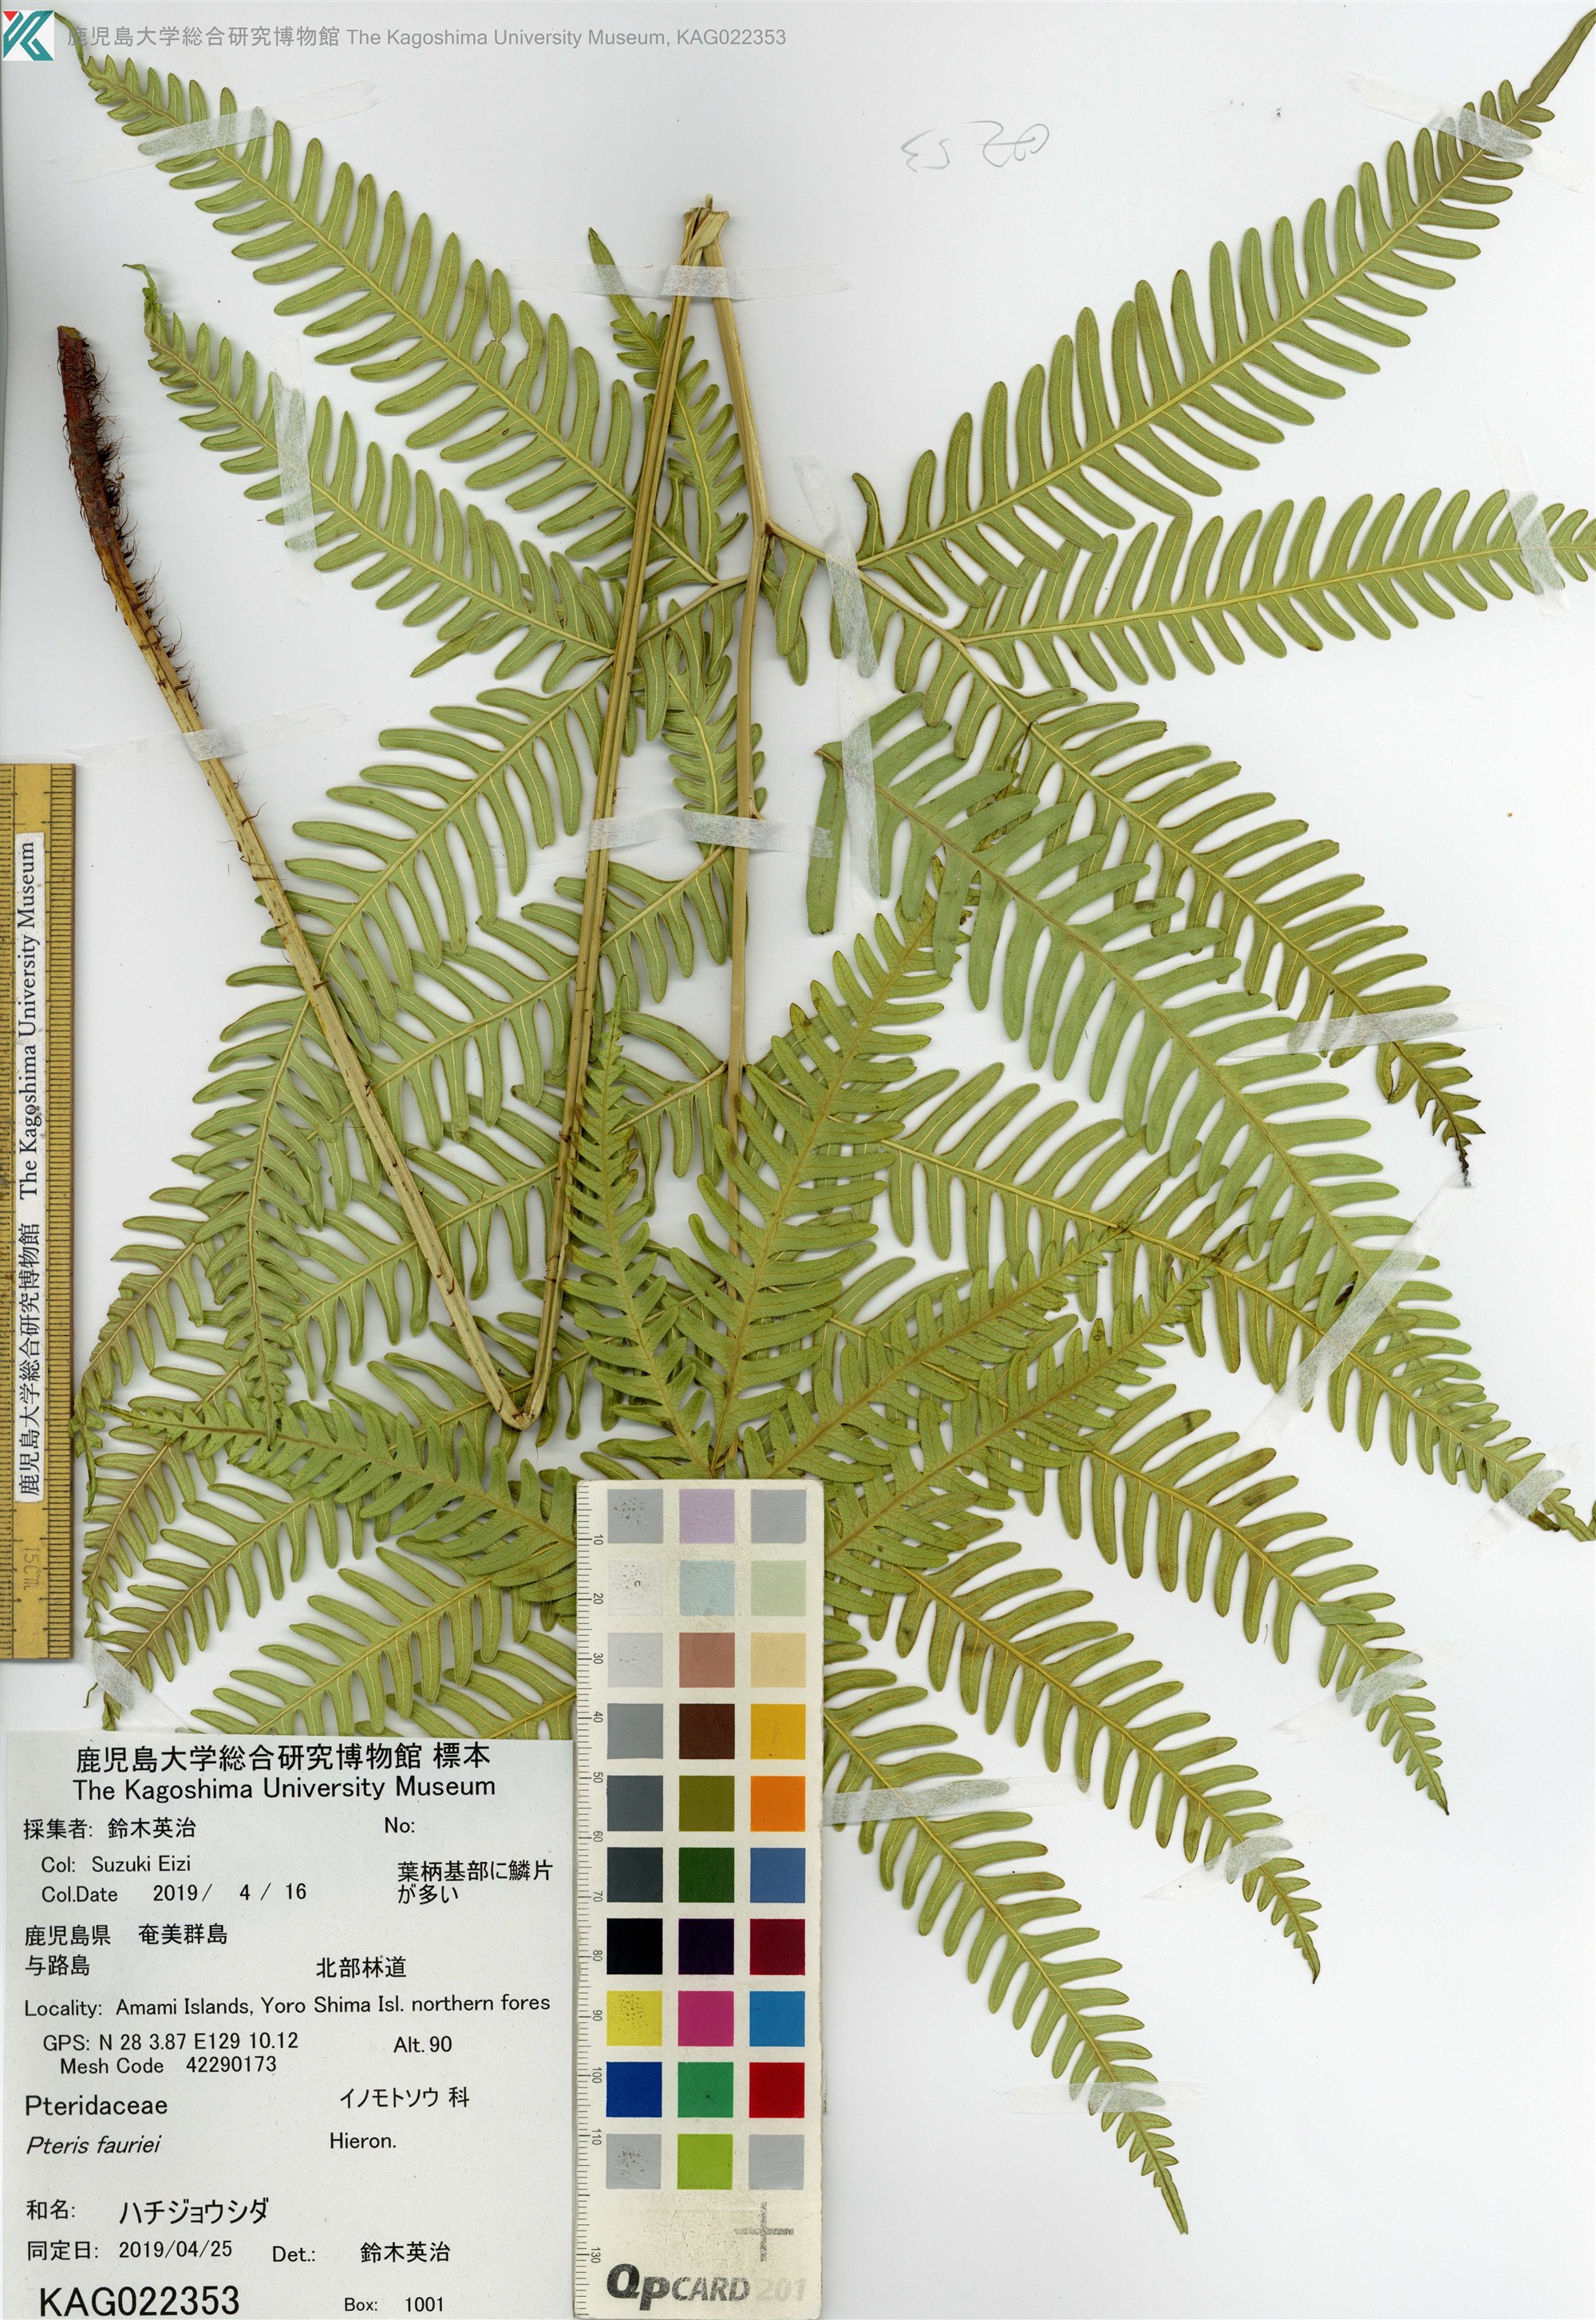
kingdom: Plantae
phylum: Tracheophyta
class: Polypodiopsida
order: Polypodiales
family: Pteridaceae
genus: Pteris
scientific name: Pteris fauriei
